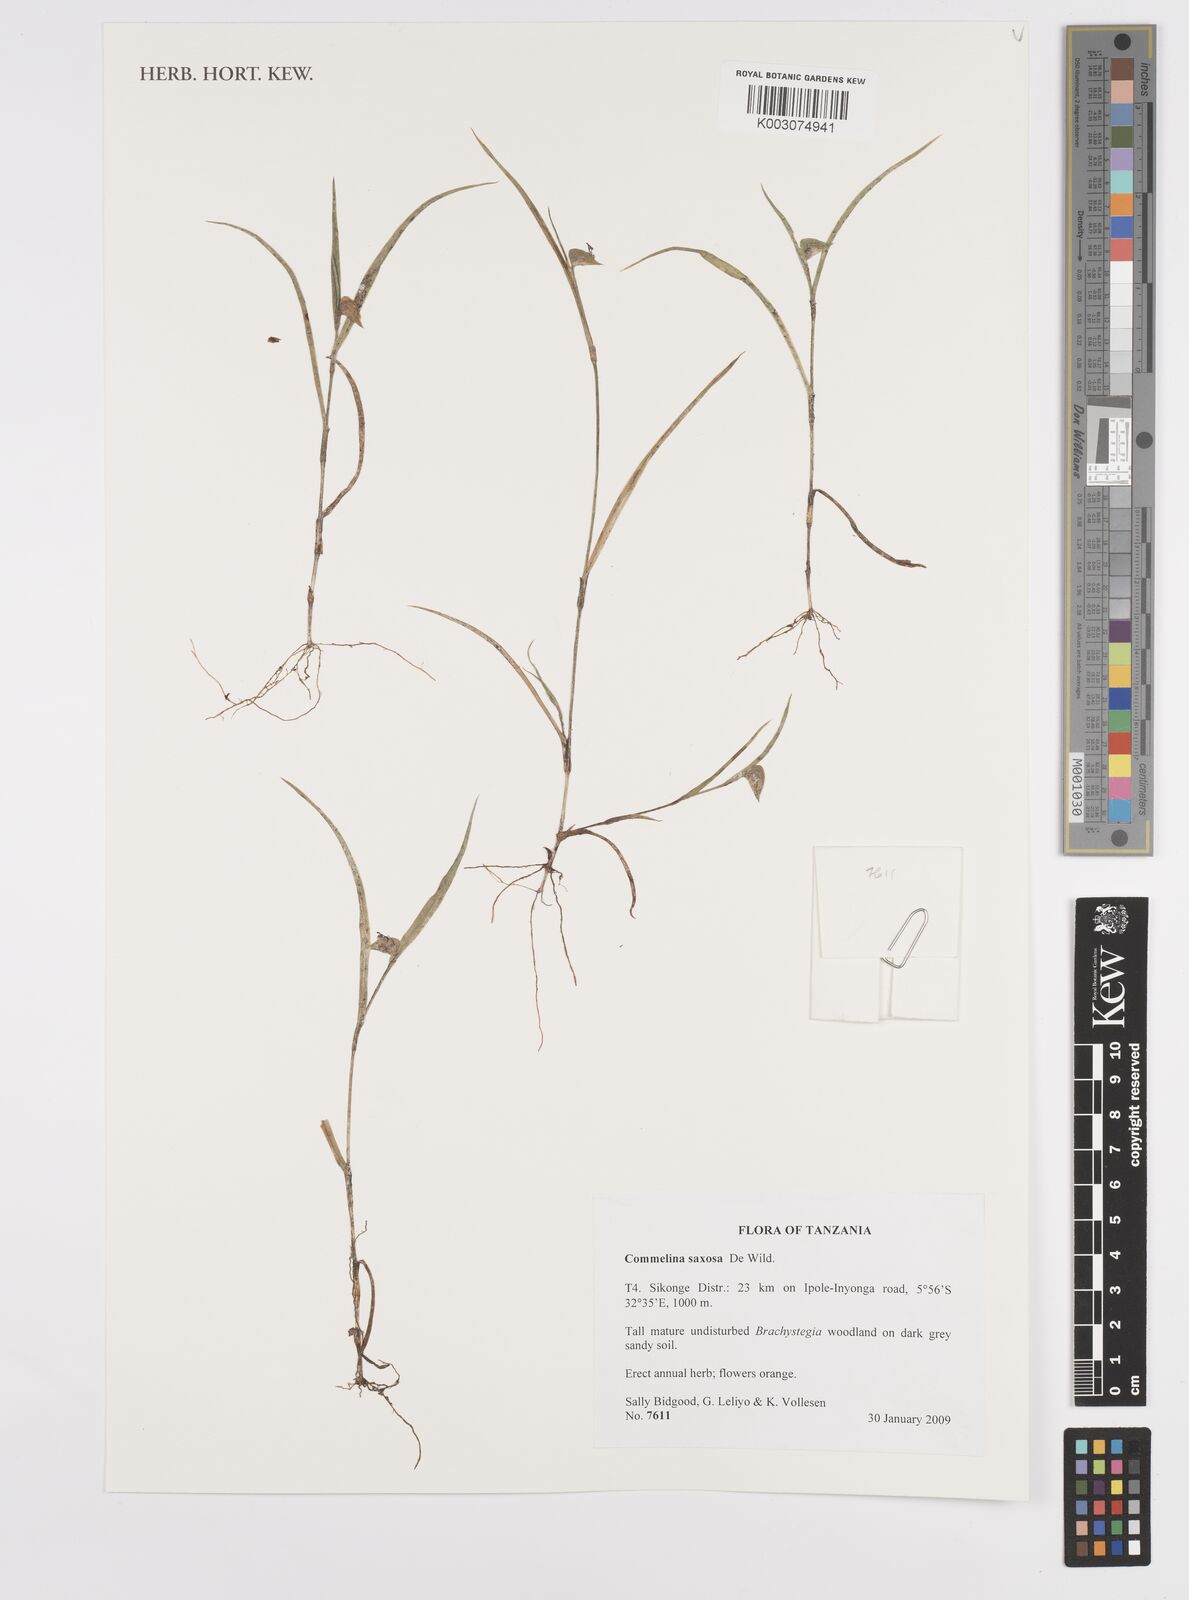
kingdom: Plantae
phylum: Tracheophyta
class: Liliopsida
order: Commelinales
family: Commelinaceae
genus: Commelina
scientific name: Commelina saxosa
